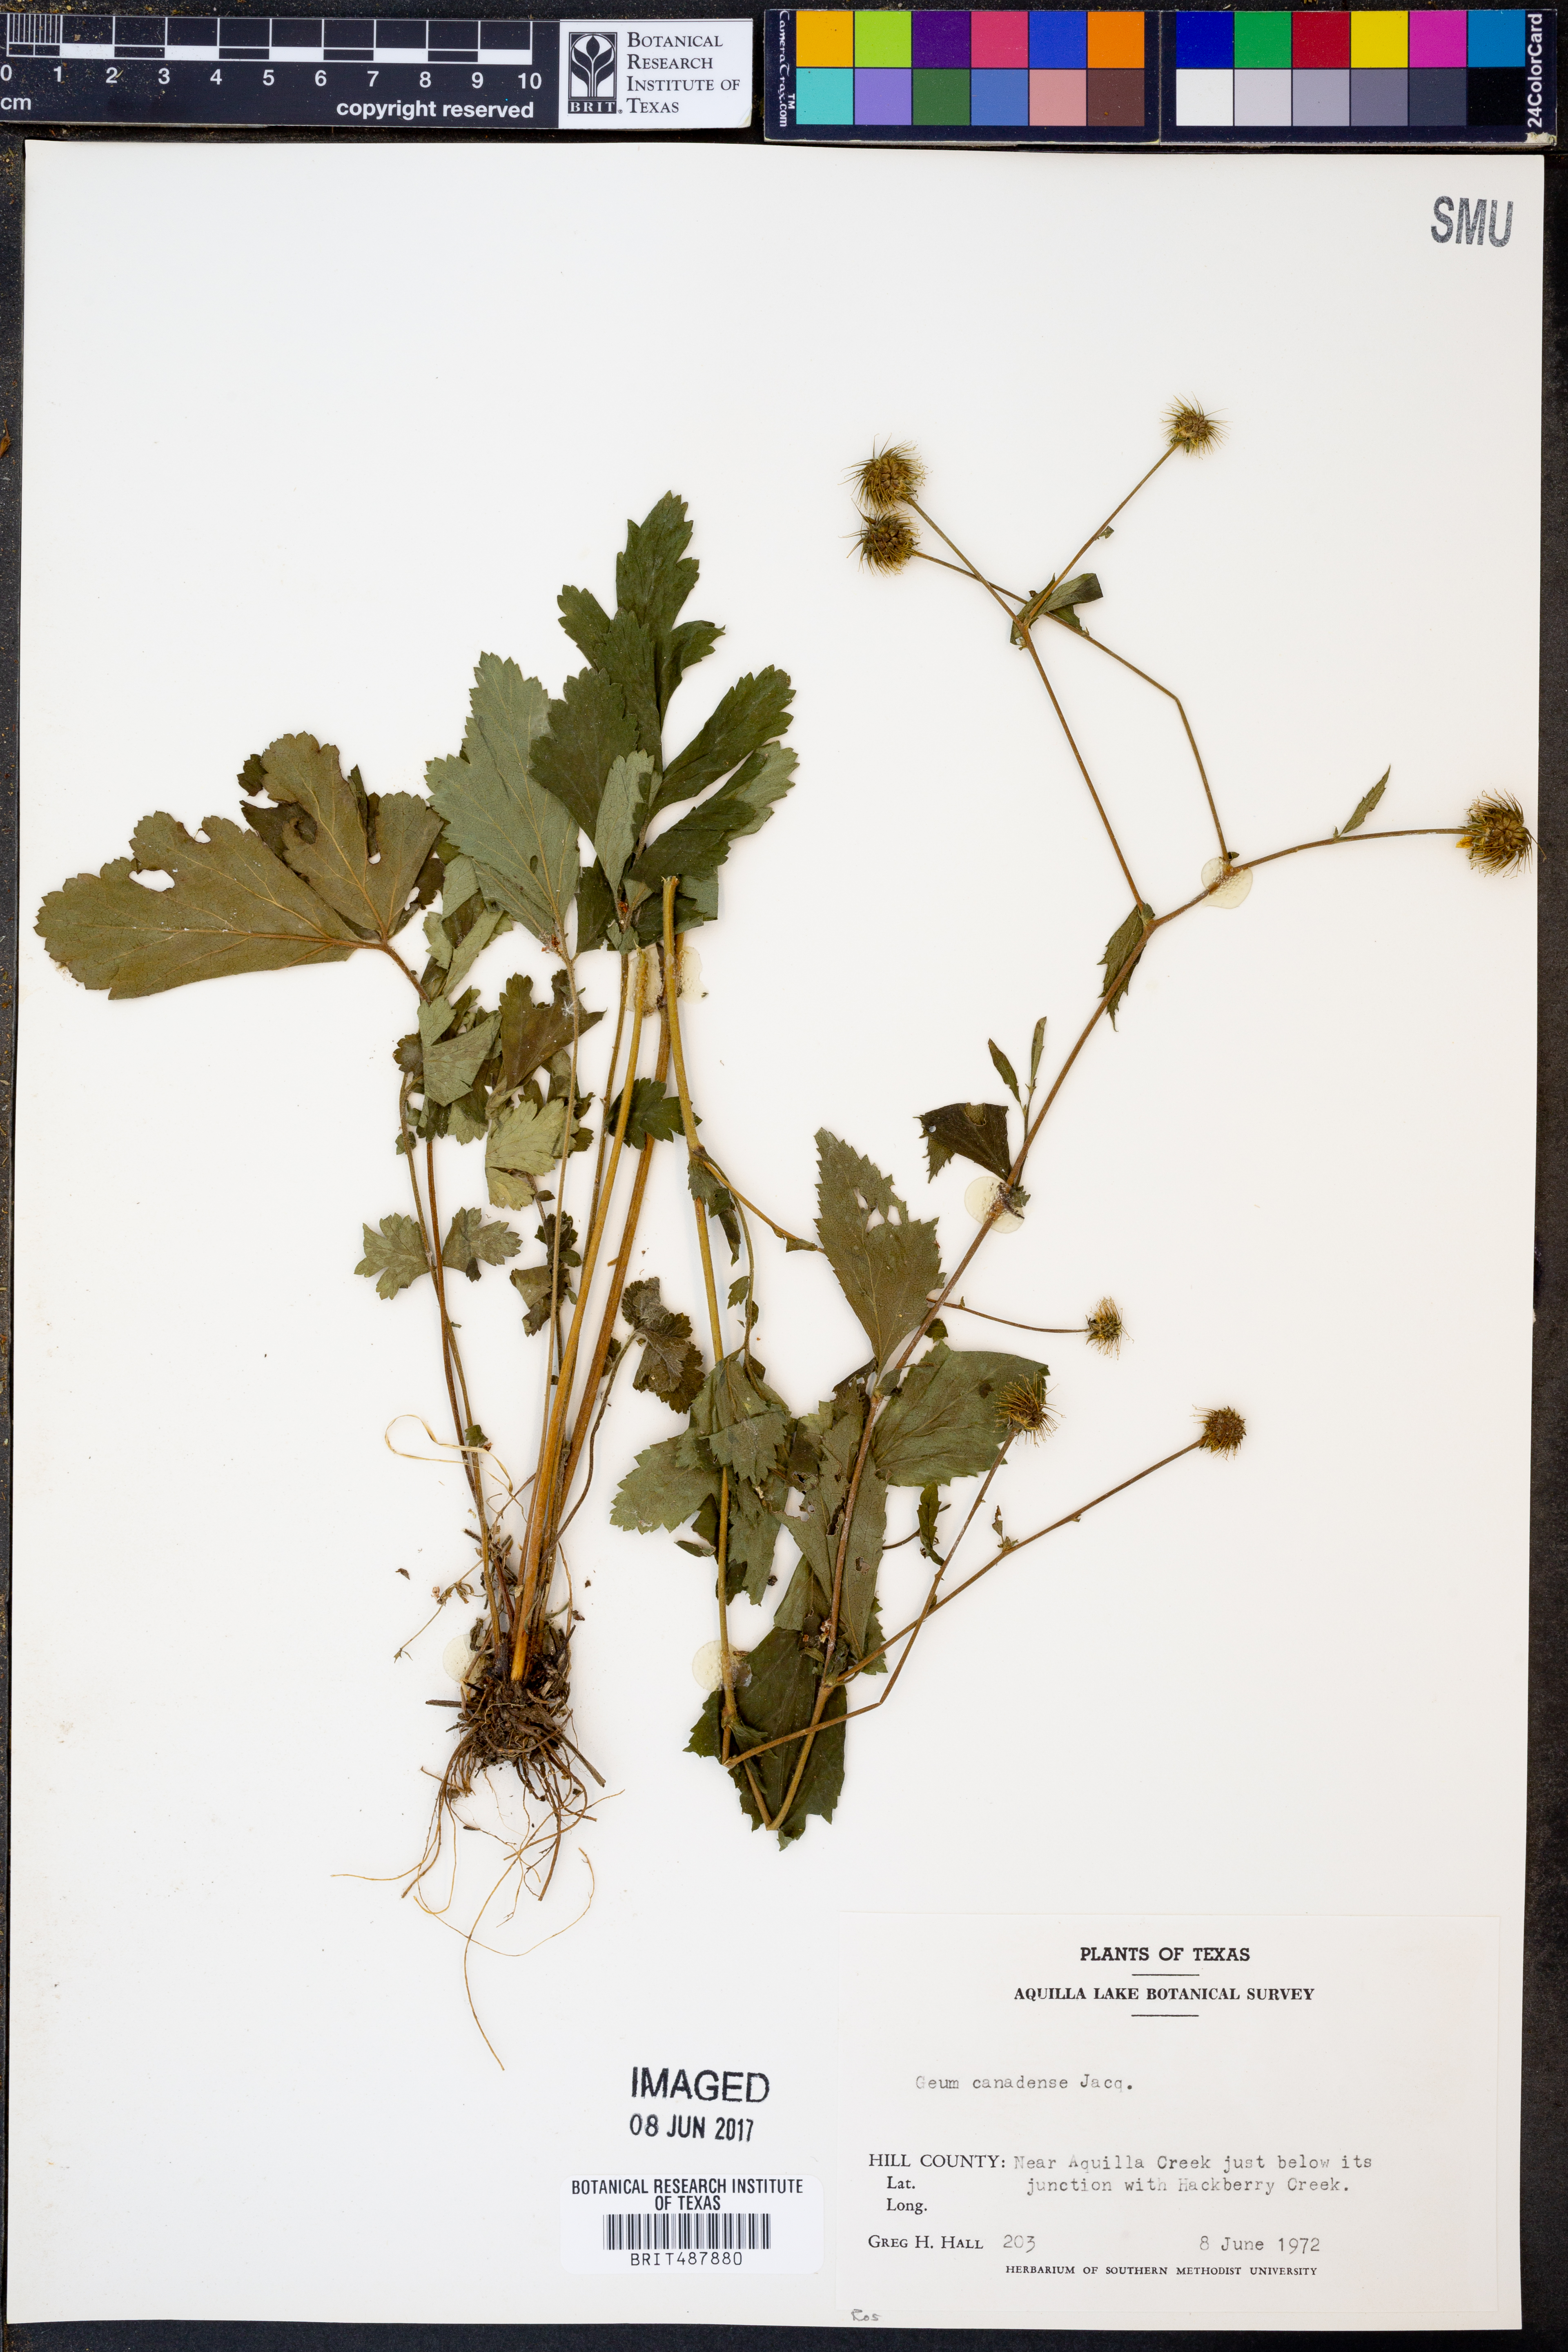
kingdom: Plantae
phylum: Tracheophyta
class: Magnoliopsida
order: Rosales
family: Rosaceae
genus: Geum
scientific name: Geum canadense
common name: White avens
